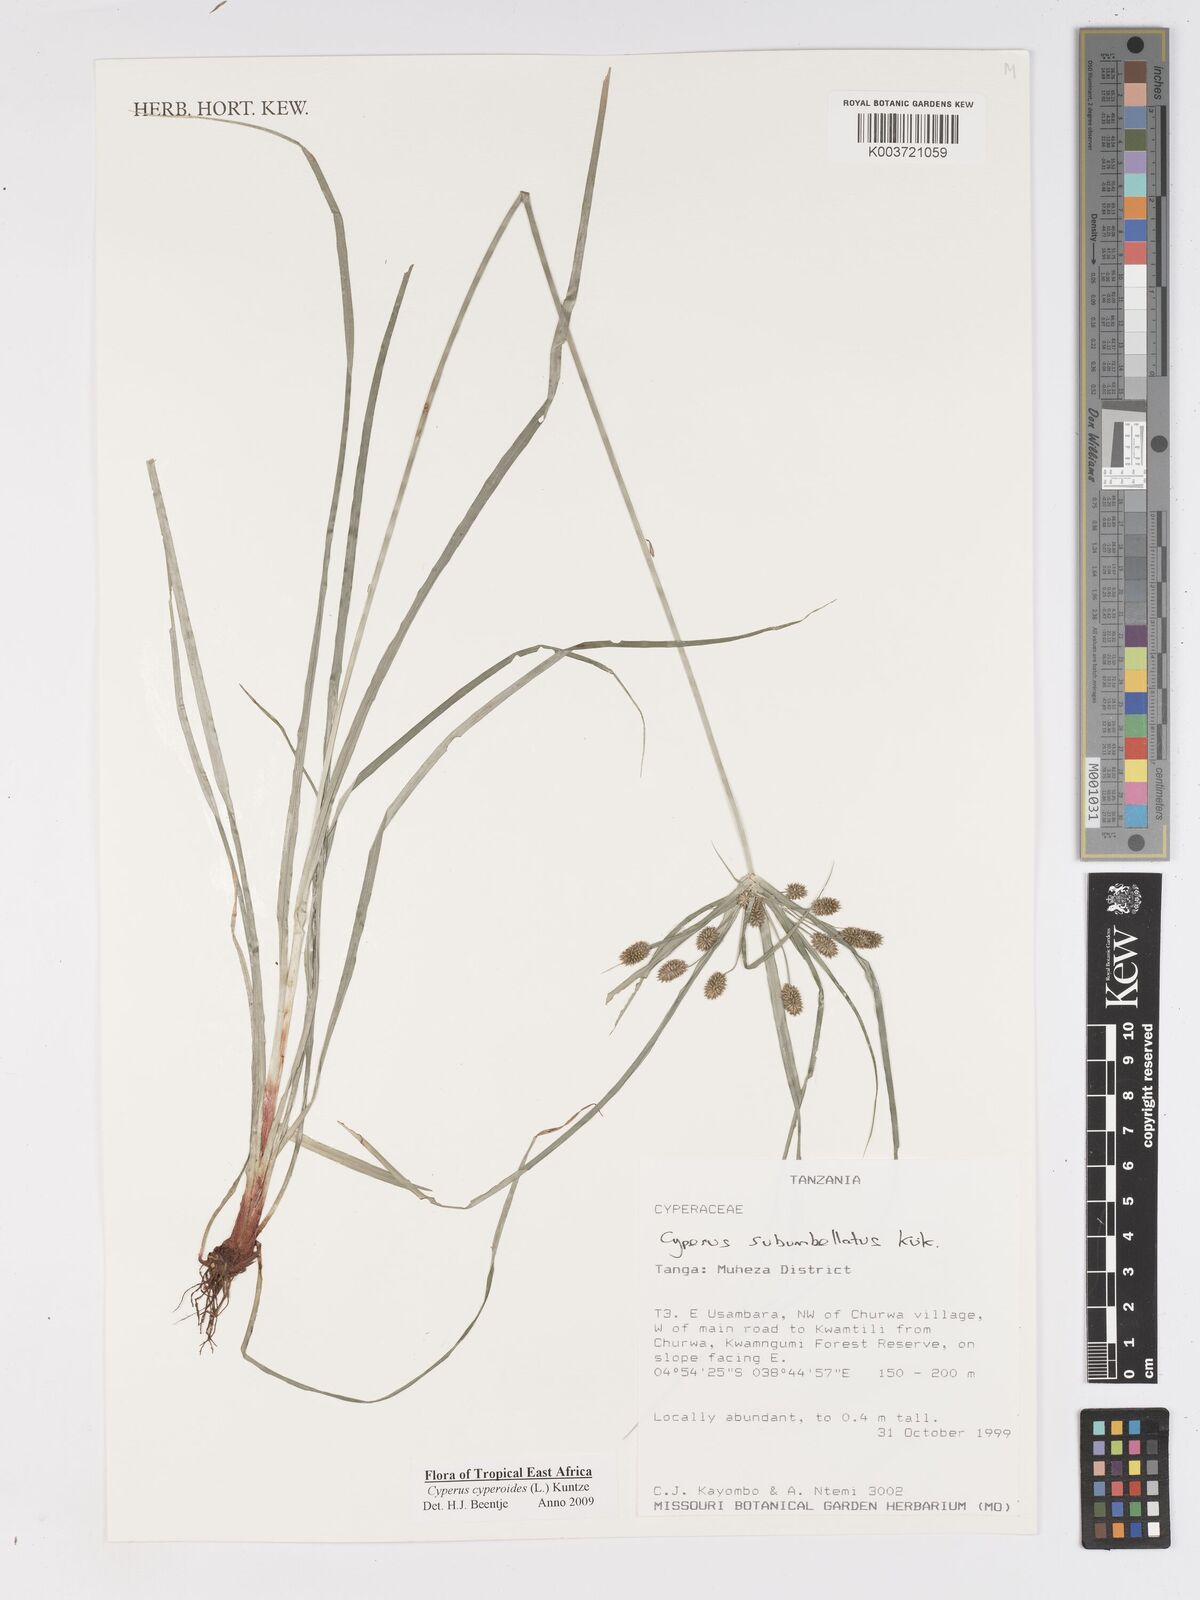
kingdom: Plantae
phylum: Tracheophyta
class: Liliopsida
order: Poales
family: Cyperaceae
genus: Cyperus
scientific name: Cyperus cyperoides
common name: Pacific island flat sedge
